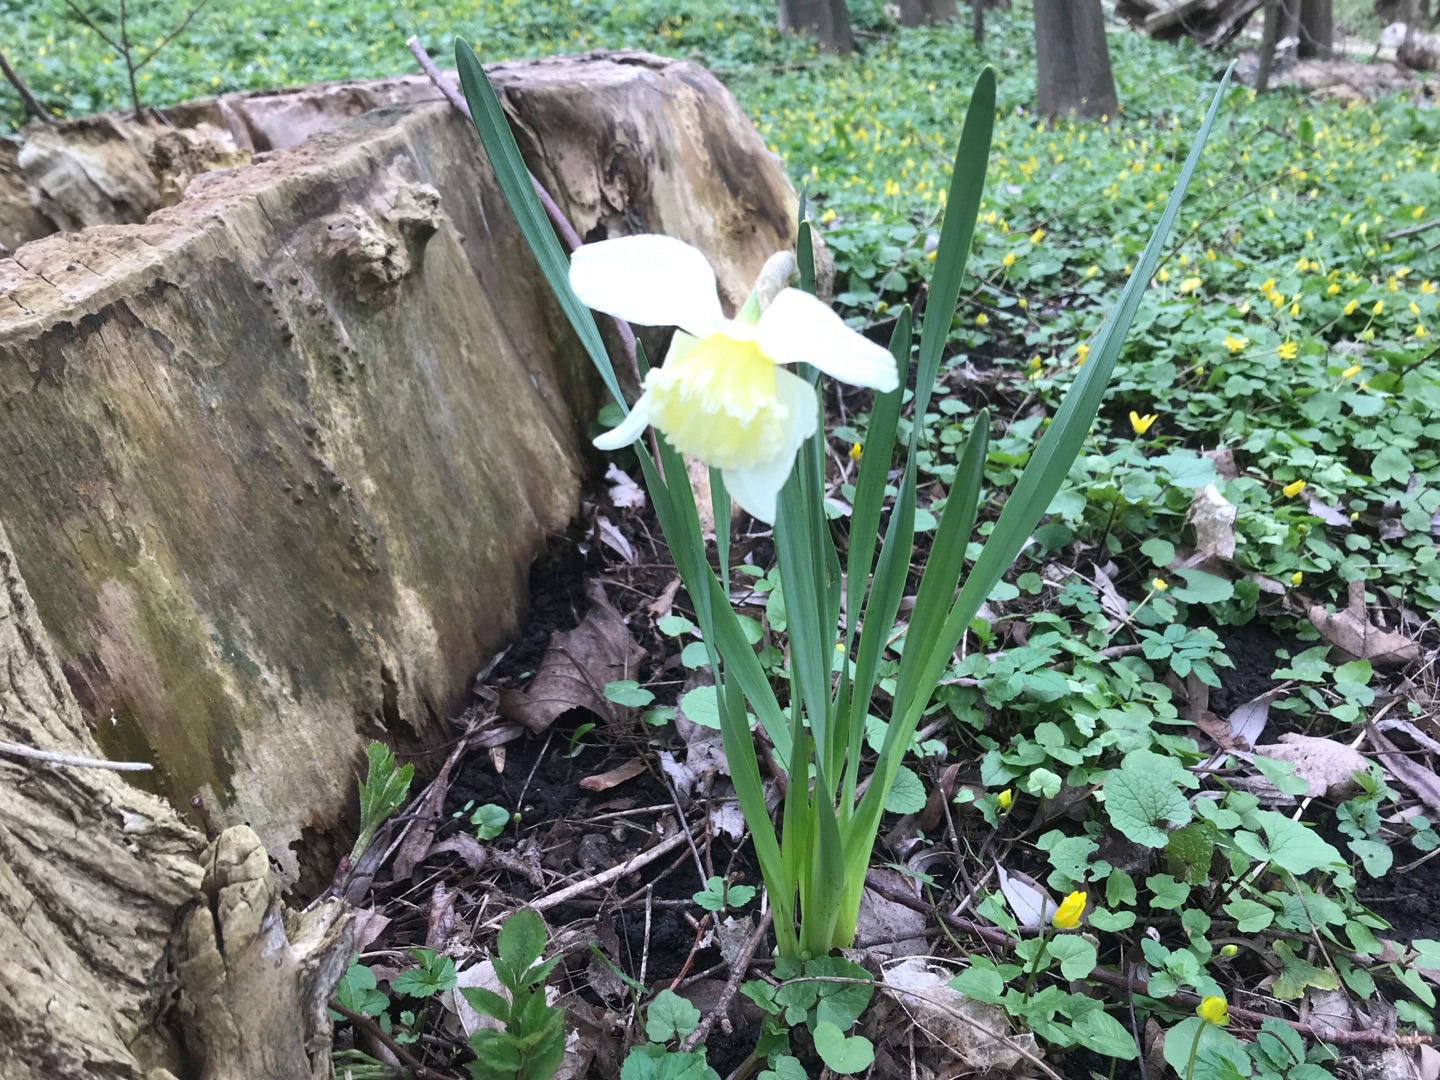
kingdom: Plantae
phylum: Tracheophyta
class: Liliopsida
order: Asparagales
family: Amaryllidaceae
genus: Narcissus
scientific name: Narcissus pseudonarcissus
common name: Påskelilje
